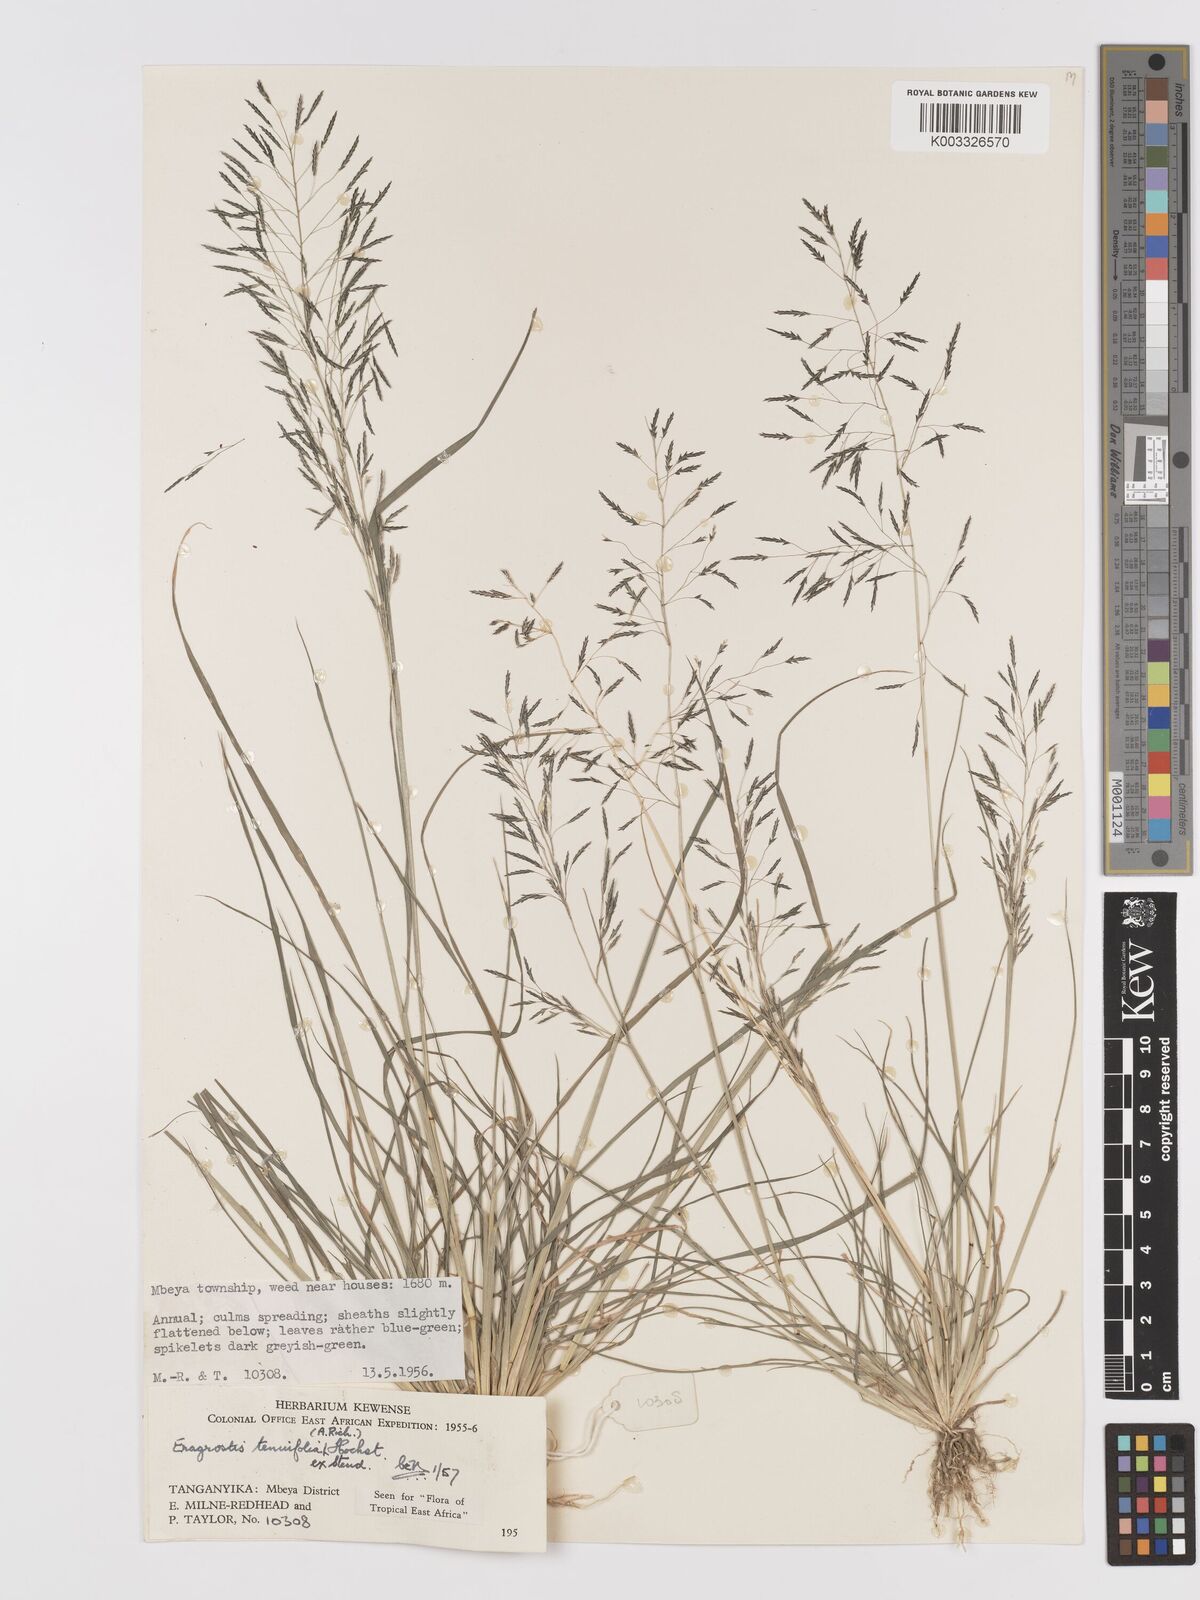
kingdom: Plantae
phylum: Tracheophyta
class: Liliopsida
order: Poales
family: Poaceae
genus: Eragrostis
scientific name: Eragrostis tenuifolia
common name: Elastic grass
